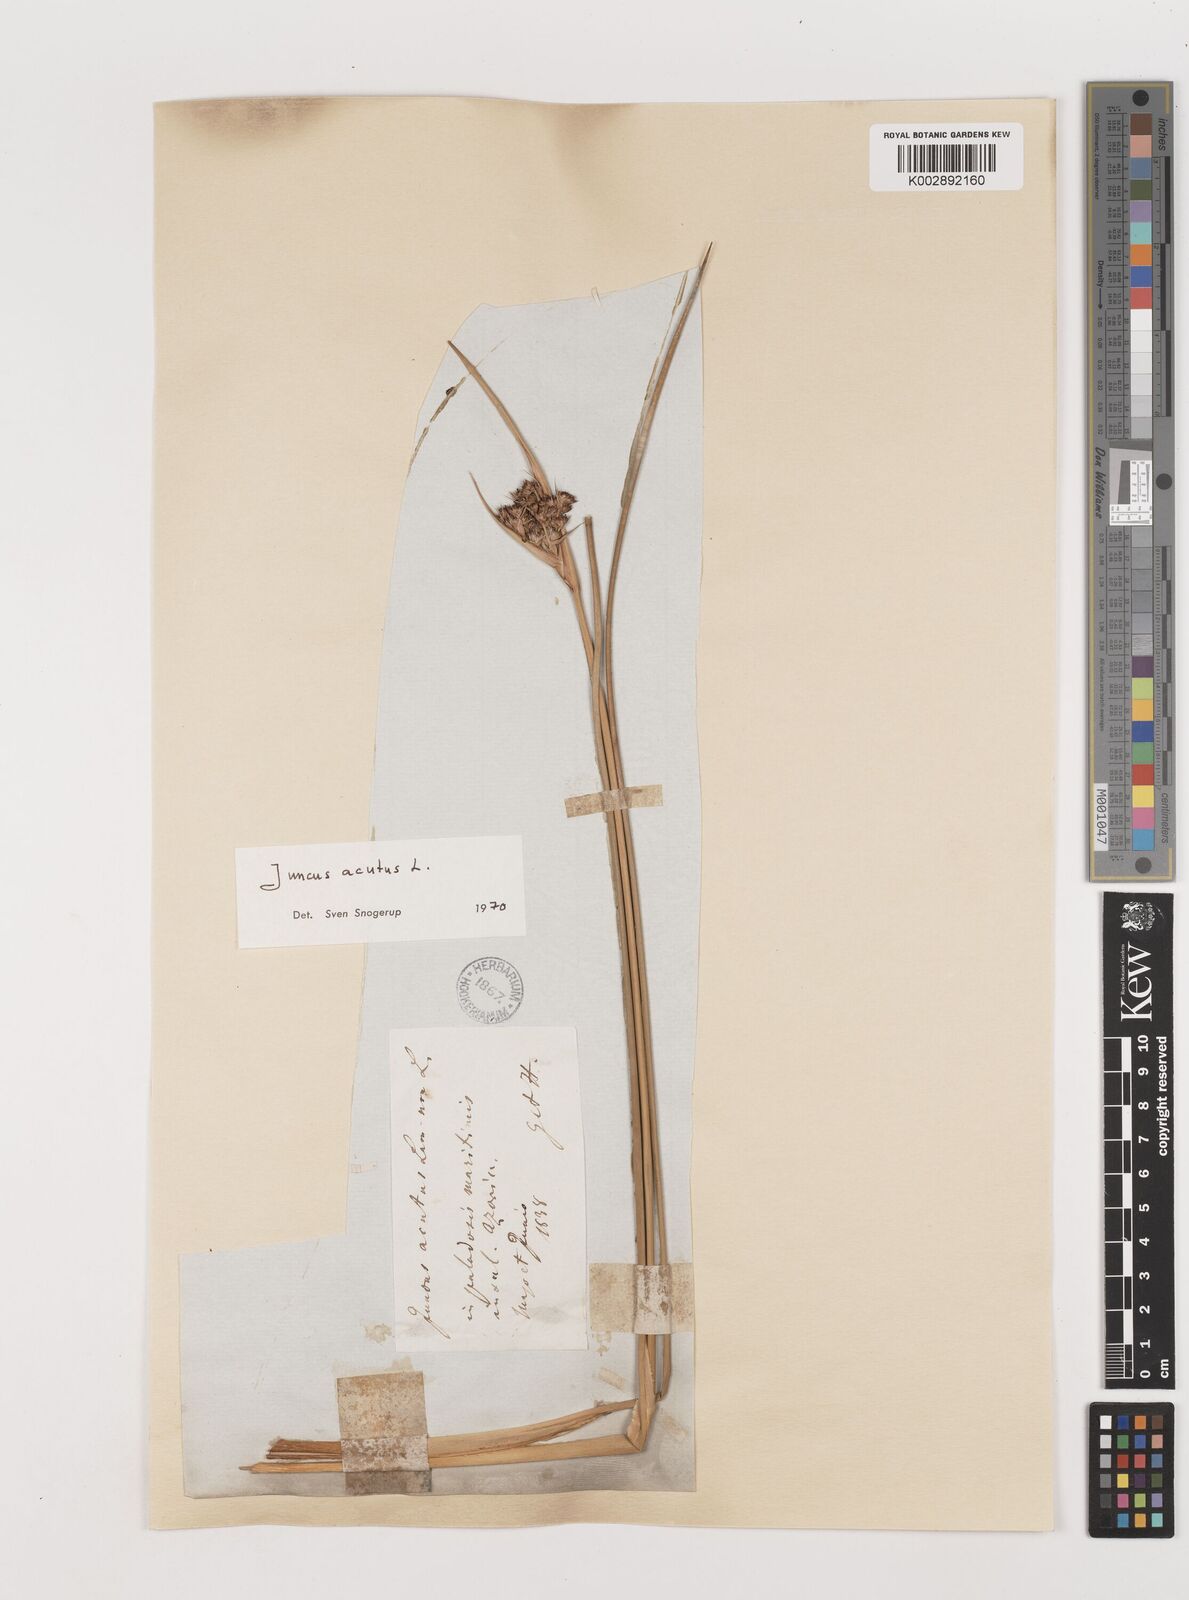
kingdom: Plantae
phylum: Tracheophyta
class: Liliopsida
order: Poales
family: Juncaceae
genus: Juncus
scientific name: Juncus acutus
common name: Sharp rush
